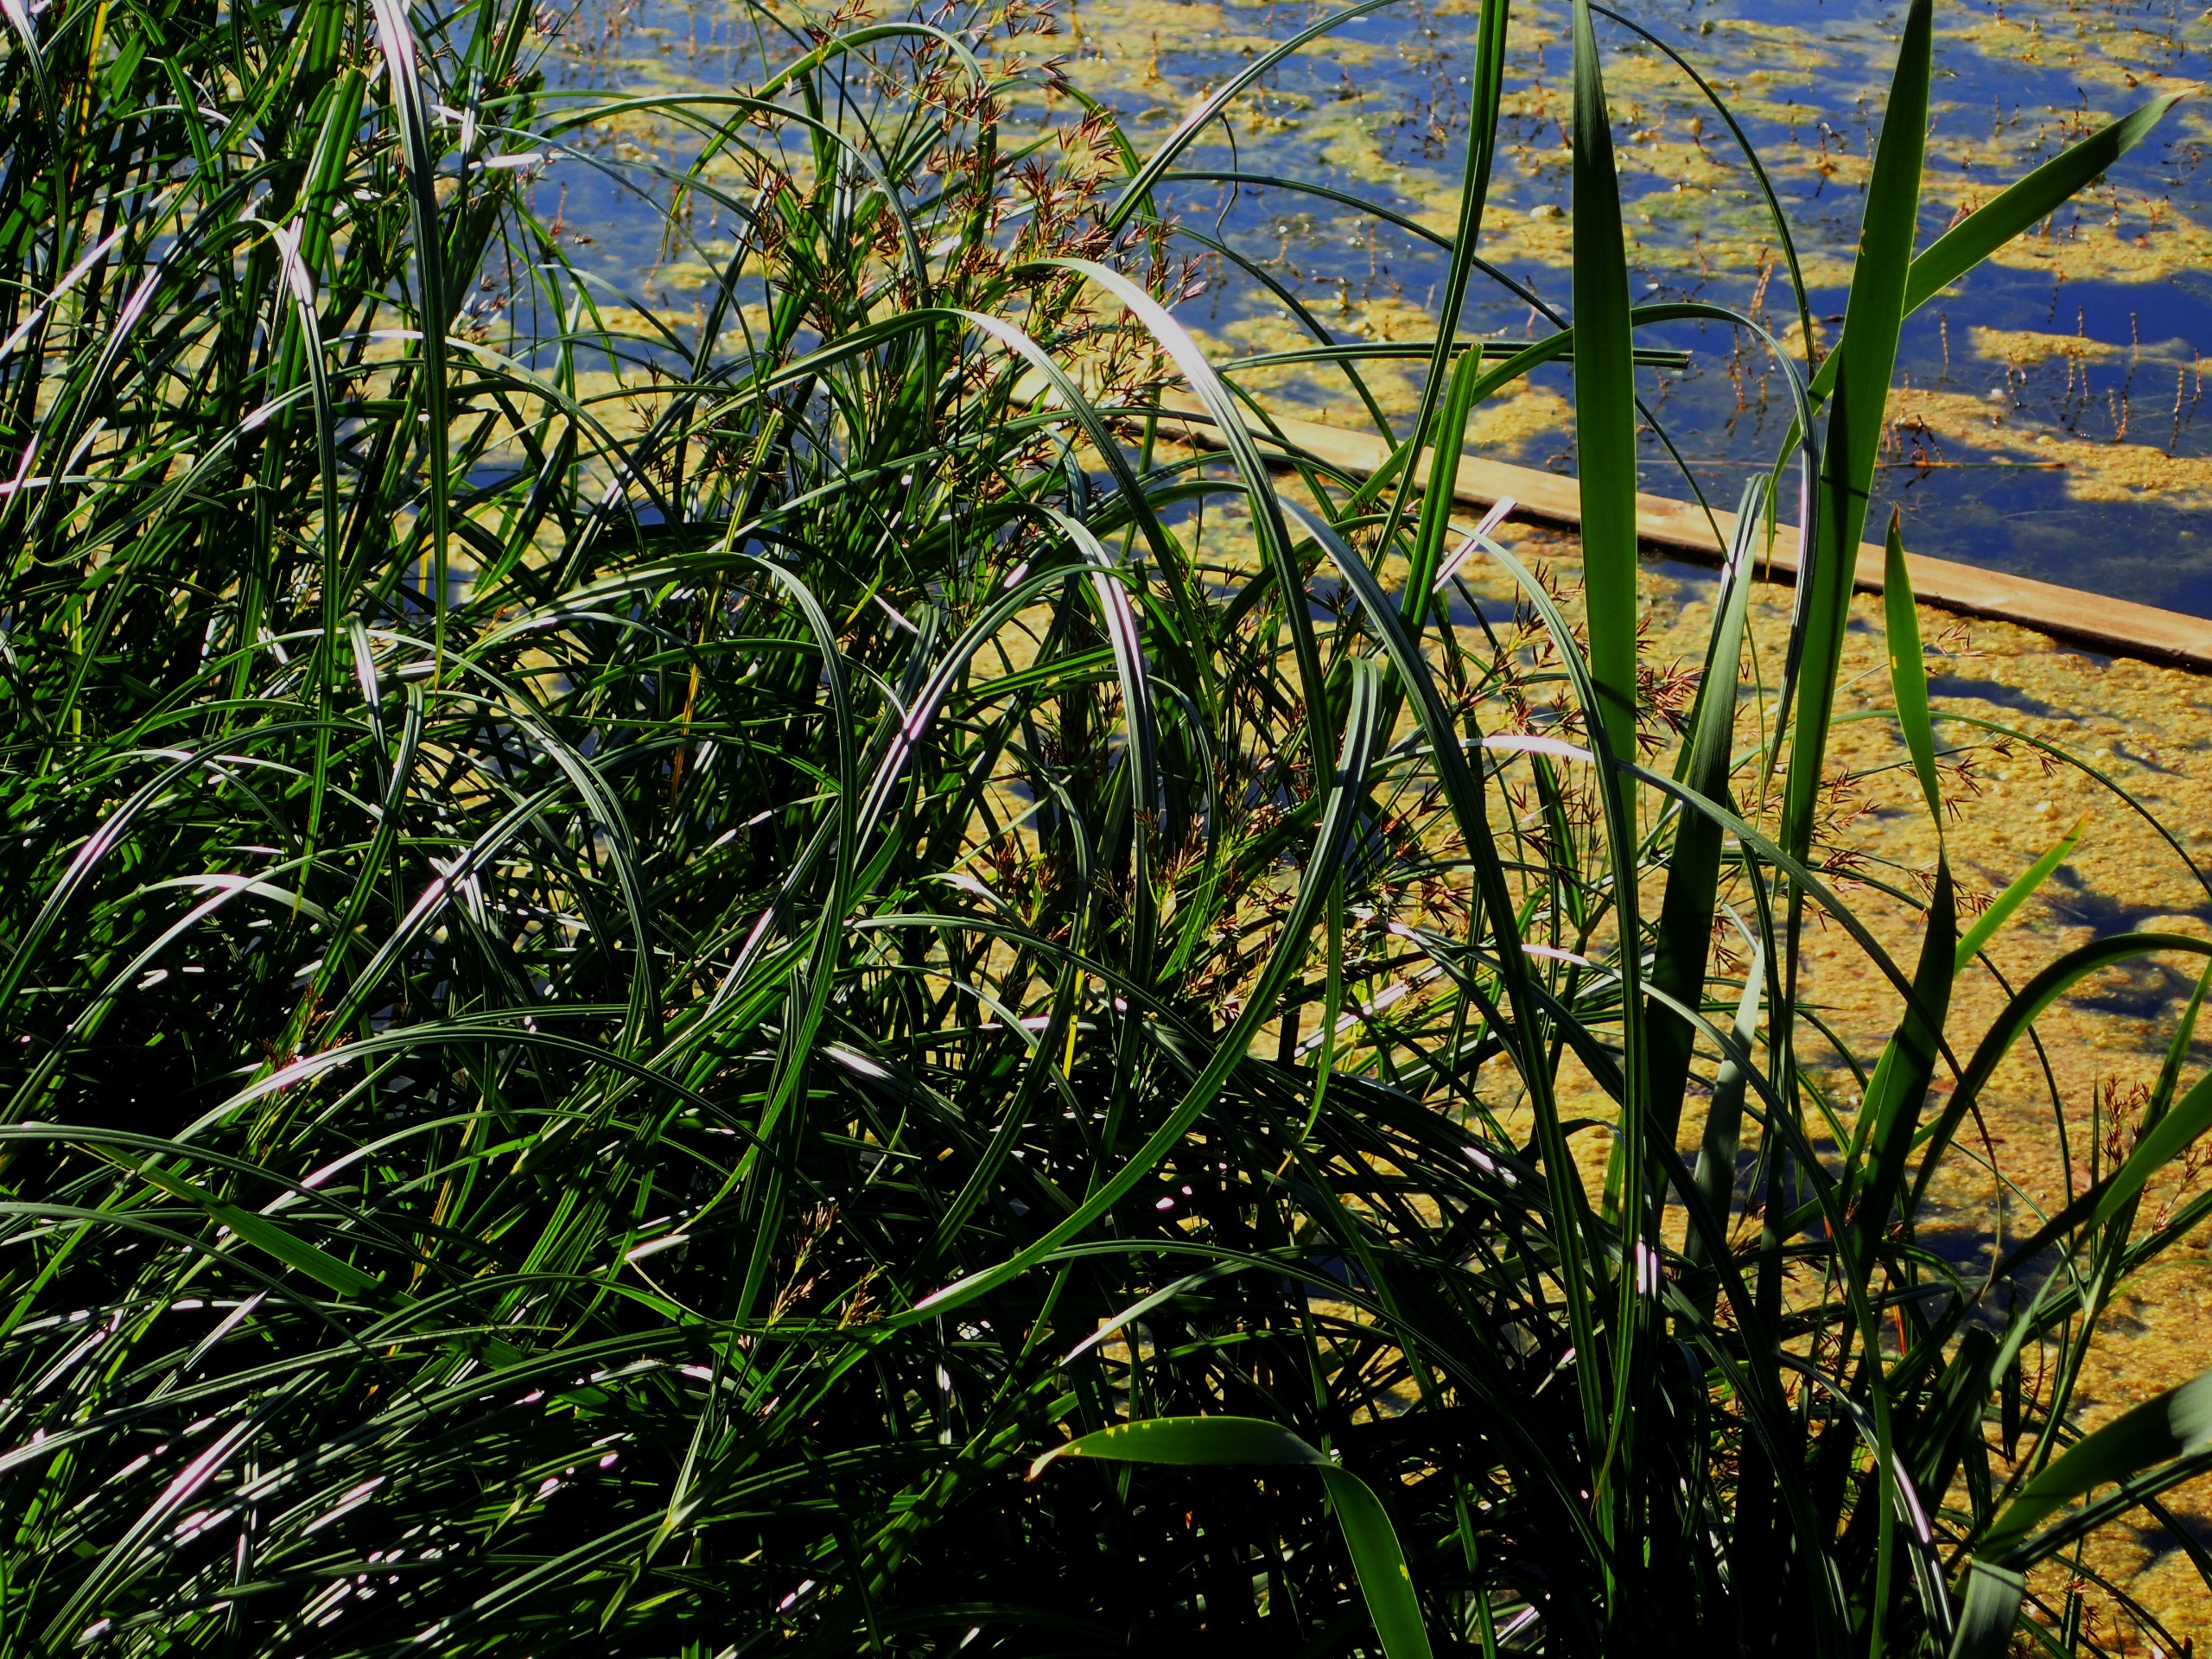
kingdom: Plantae
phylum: Tracheophyta
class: Liliopsida
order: Poales
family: Cyperaceae
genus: Cyperus
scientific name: Cyperus longus
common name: Smalbladet fladaks
